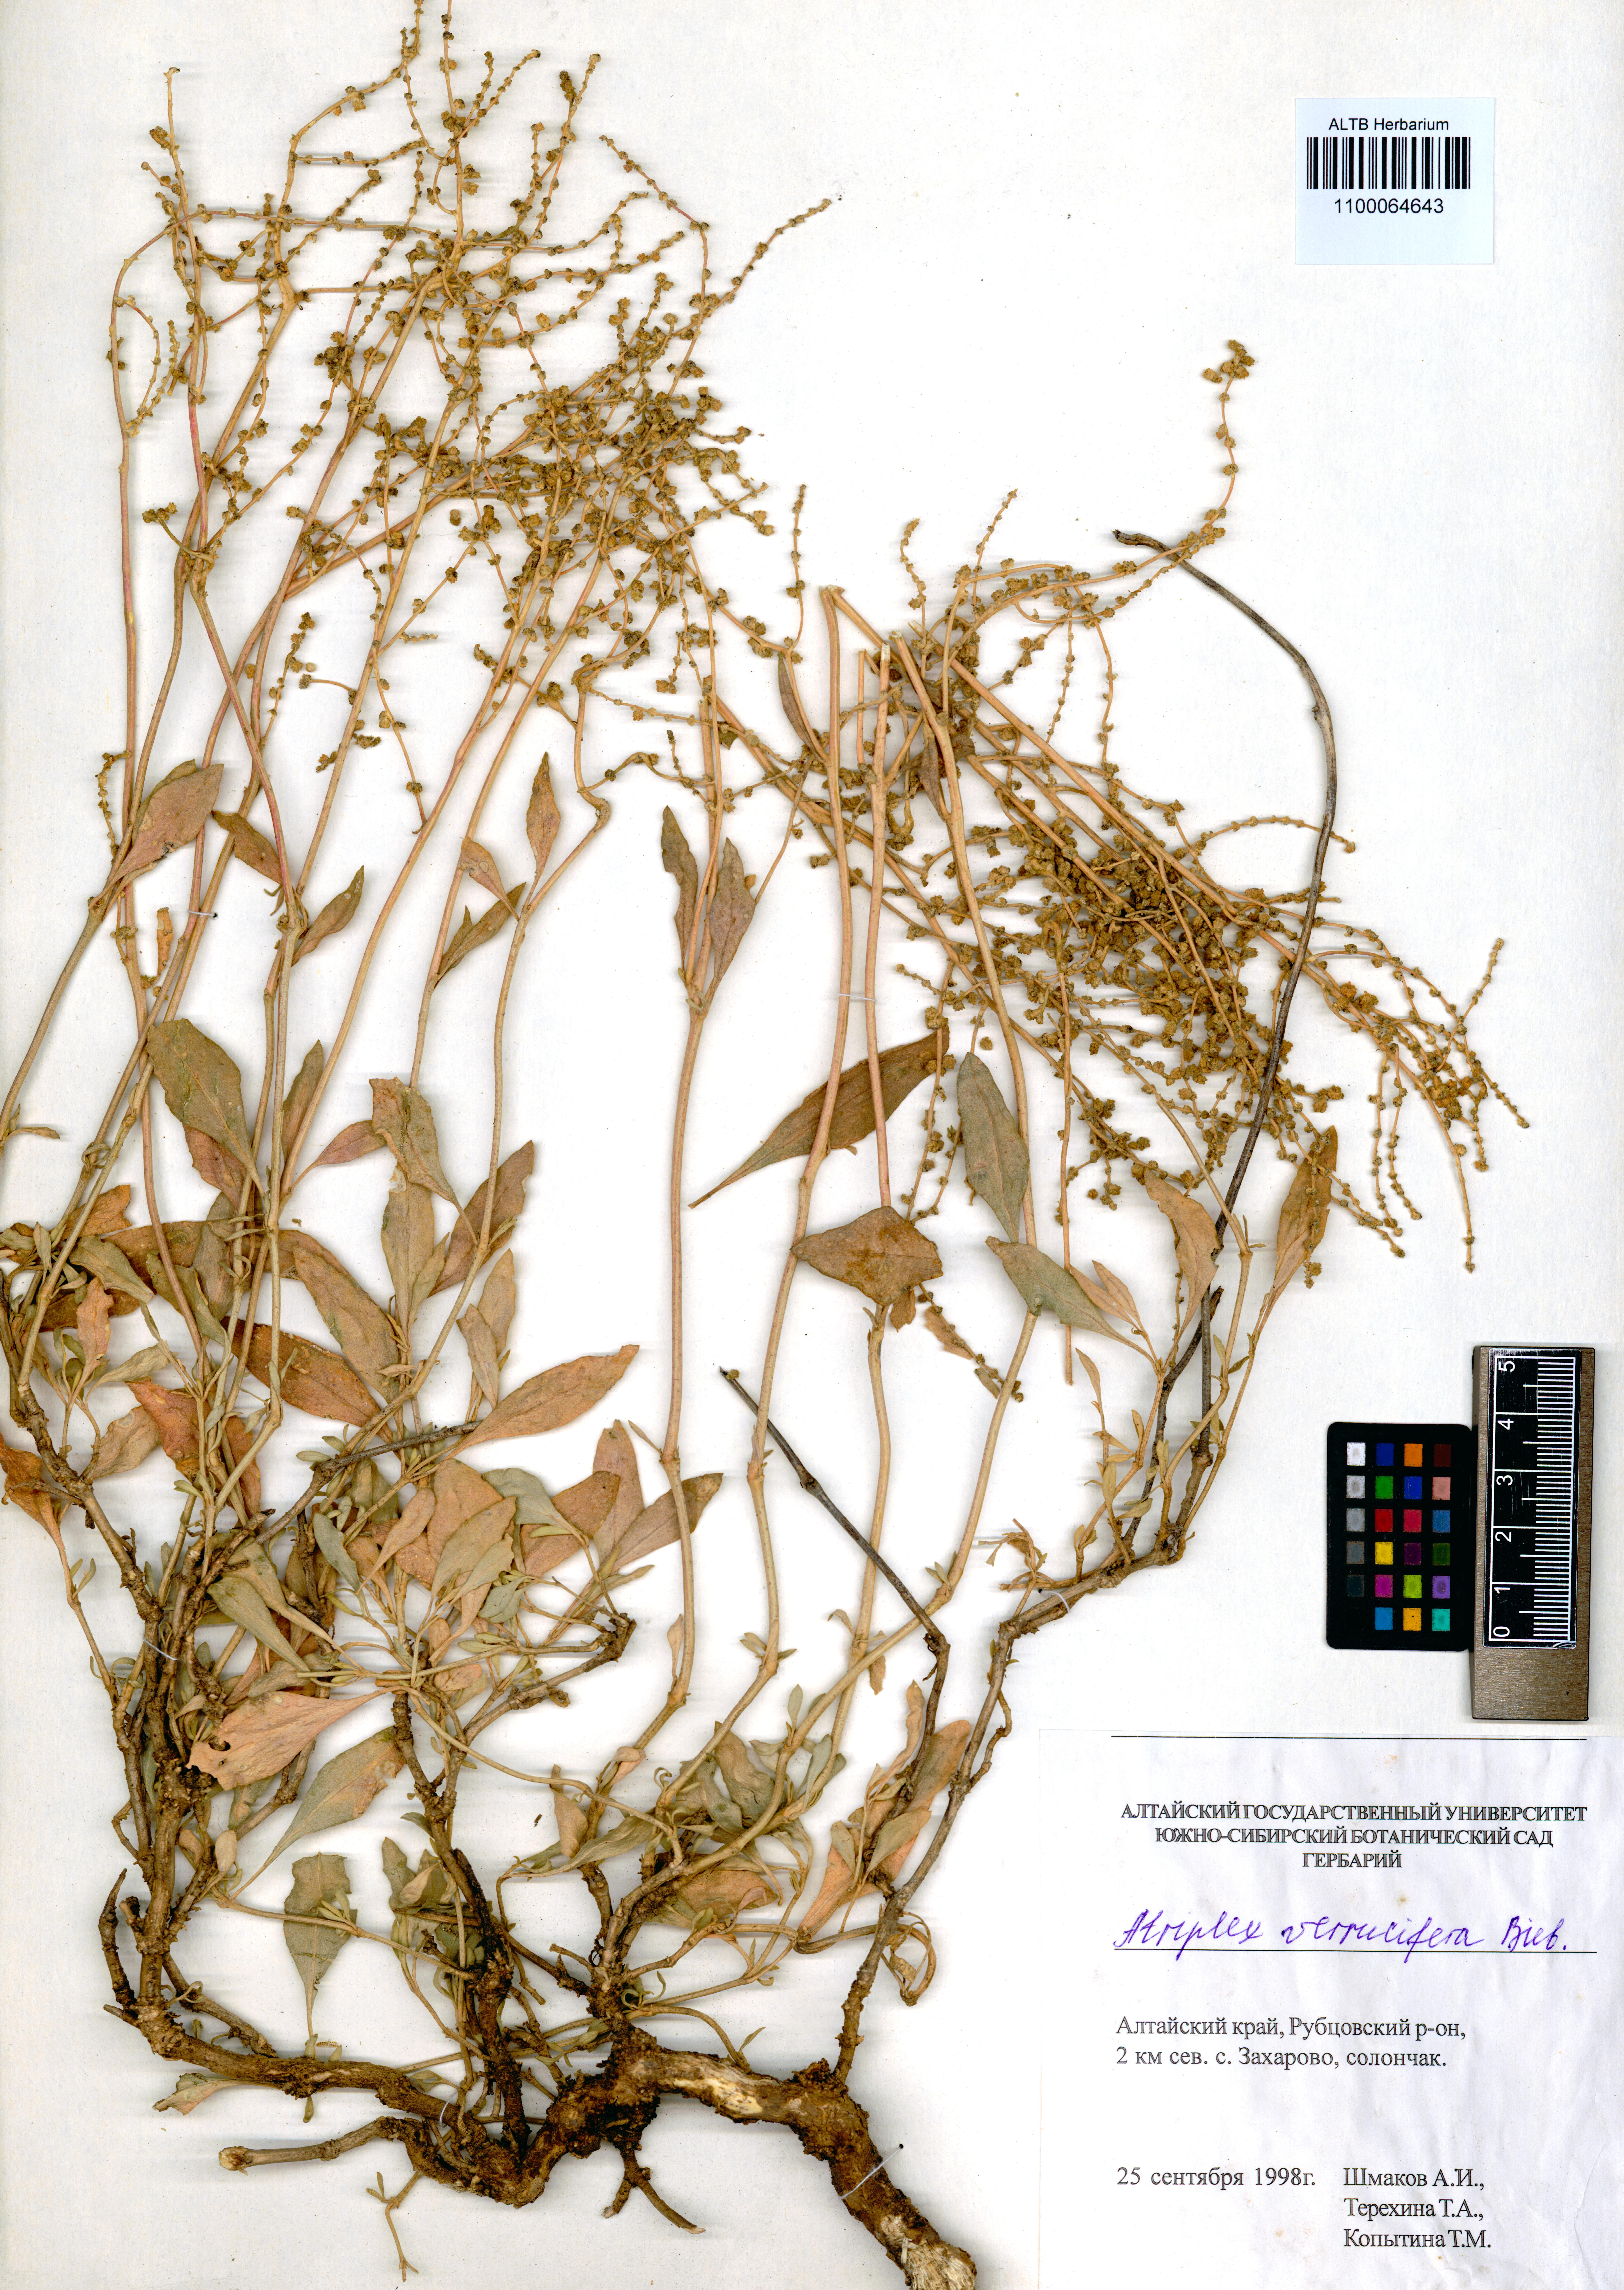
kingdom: Plantae
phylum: Tracheophyta
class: Magnoliopsida
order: Caryophyllales
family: Amaranthaceae
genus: Halimione
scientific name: Halimione verrucifera
